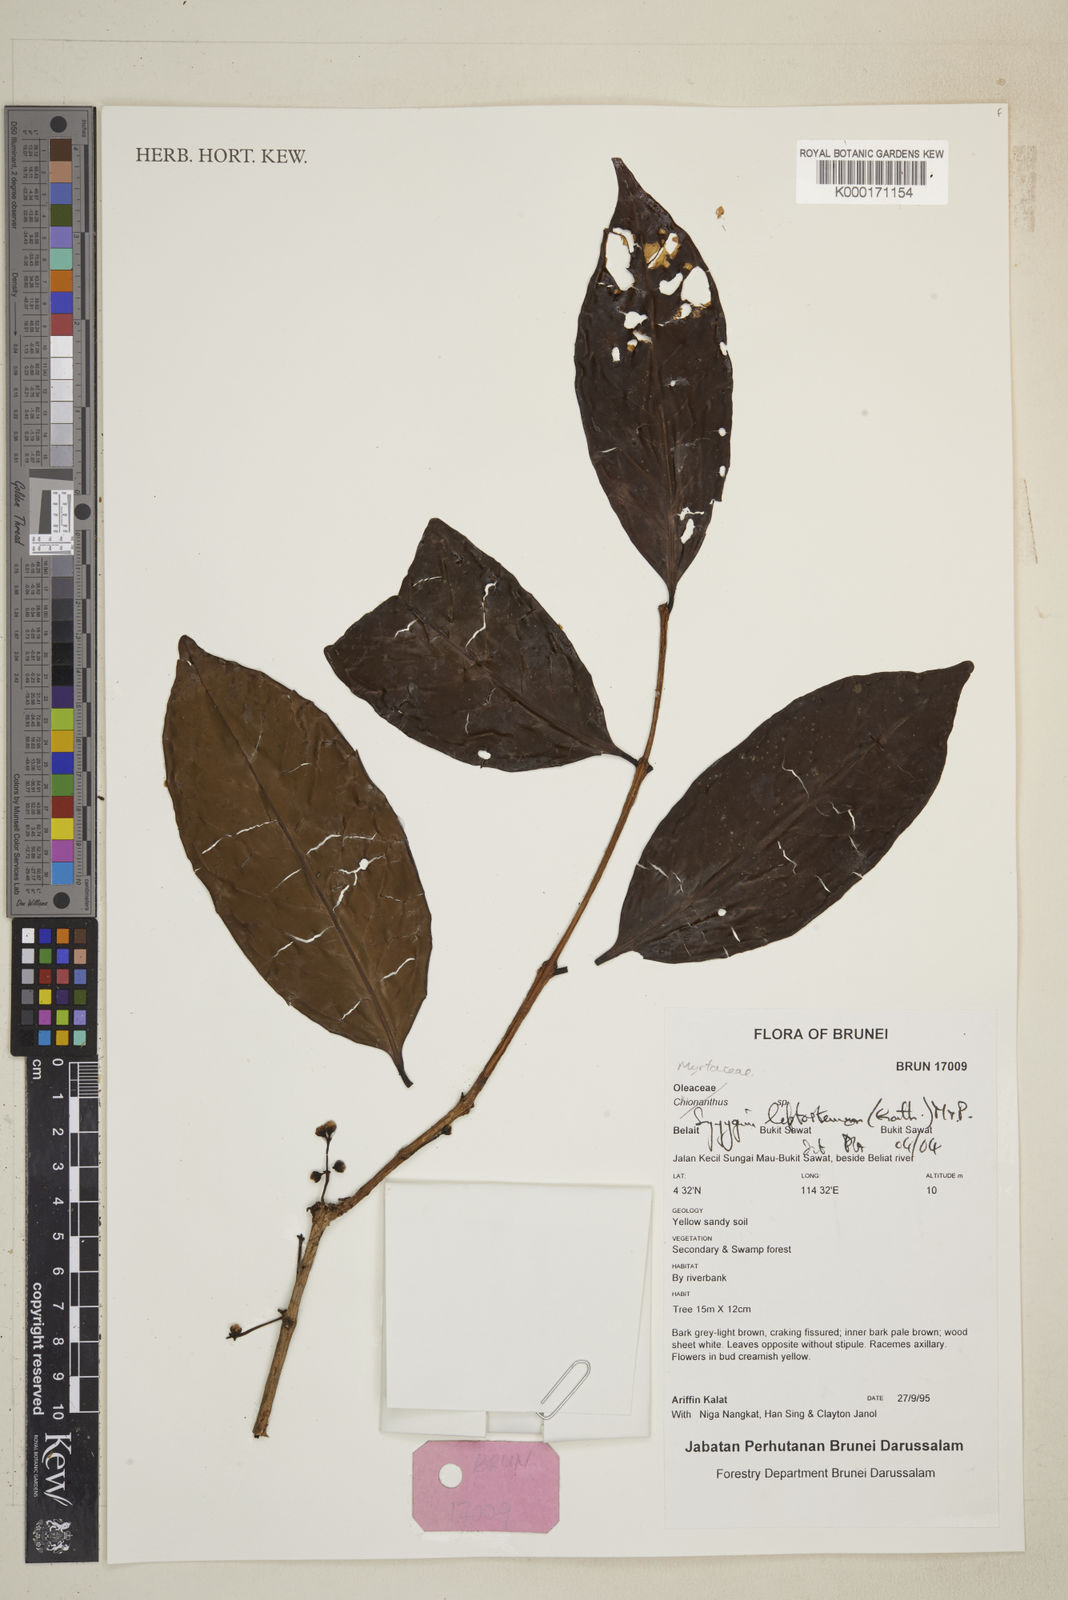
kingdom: Plantae
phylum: Tracheophyta
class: Magnoliopsida
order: Myrtales
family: Myrtaceae
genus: Syzygium
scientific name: Syzygium
